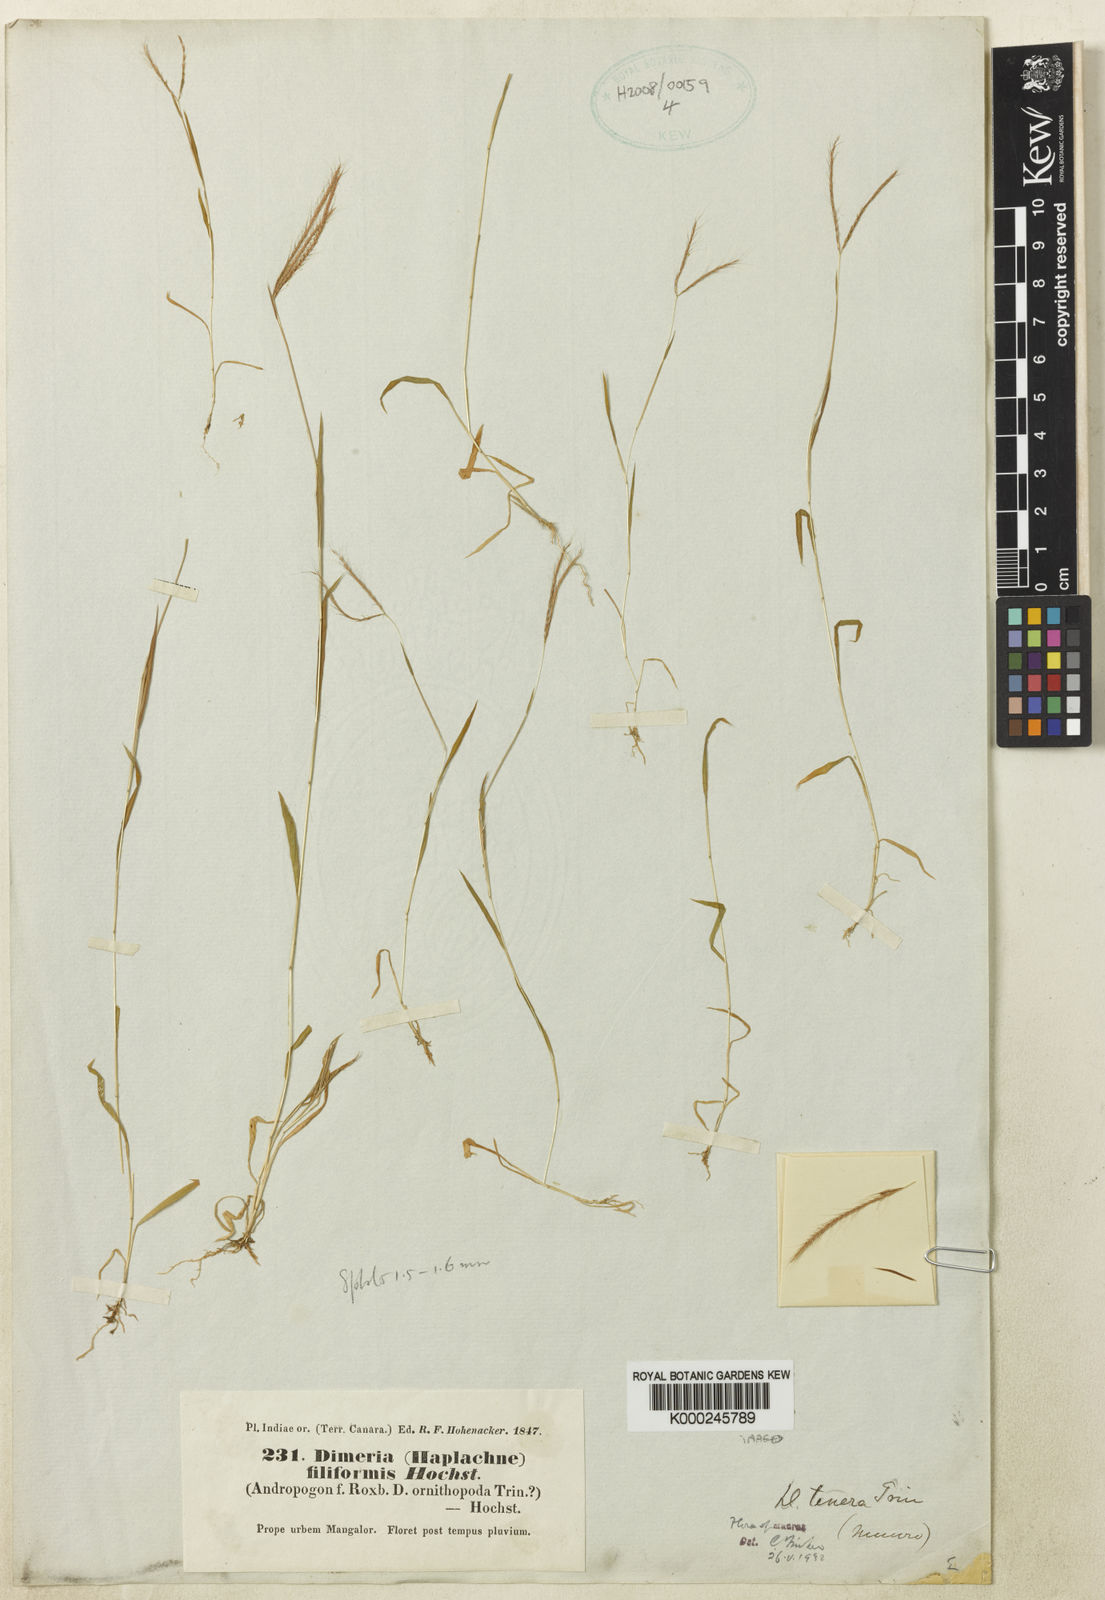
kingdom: Plantae
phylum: Tracheophyta
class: Liliopsida
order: Poales
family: Poaceae
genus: Dimeria
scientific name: Dimeria ornithopoda
